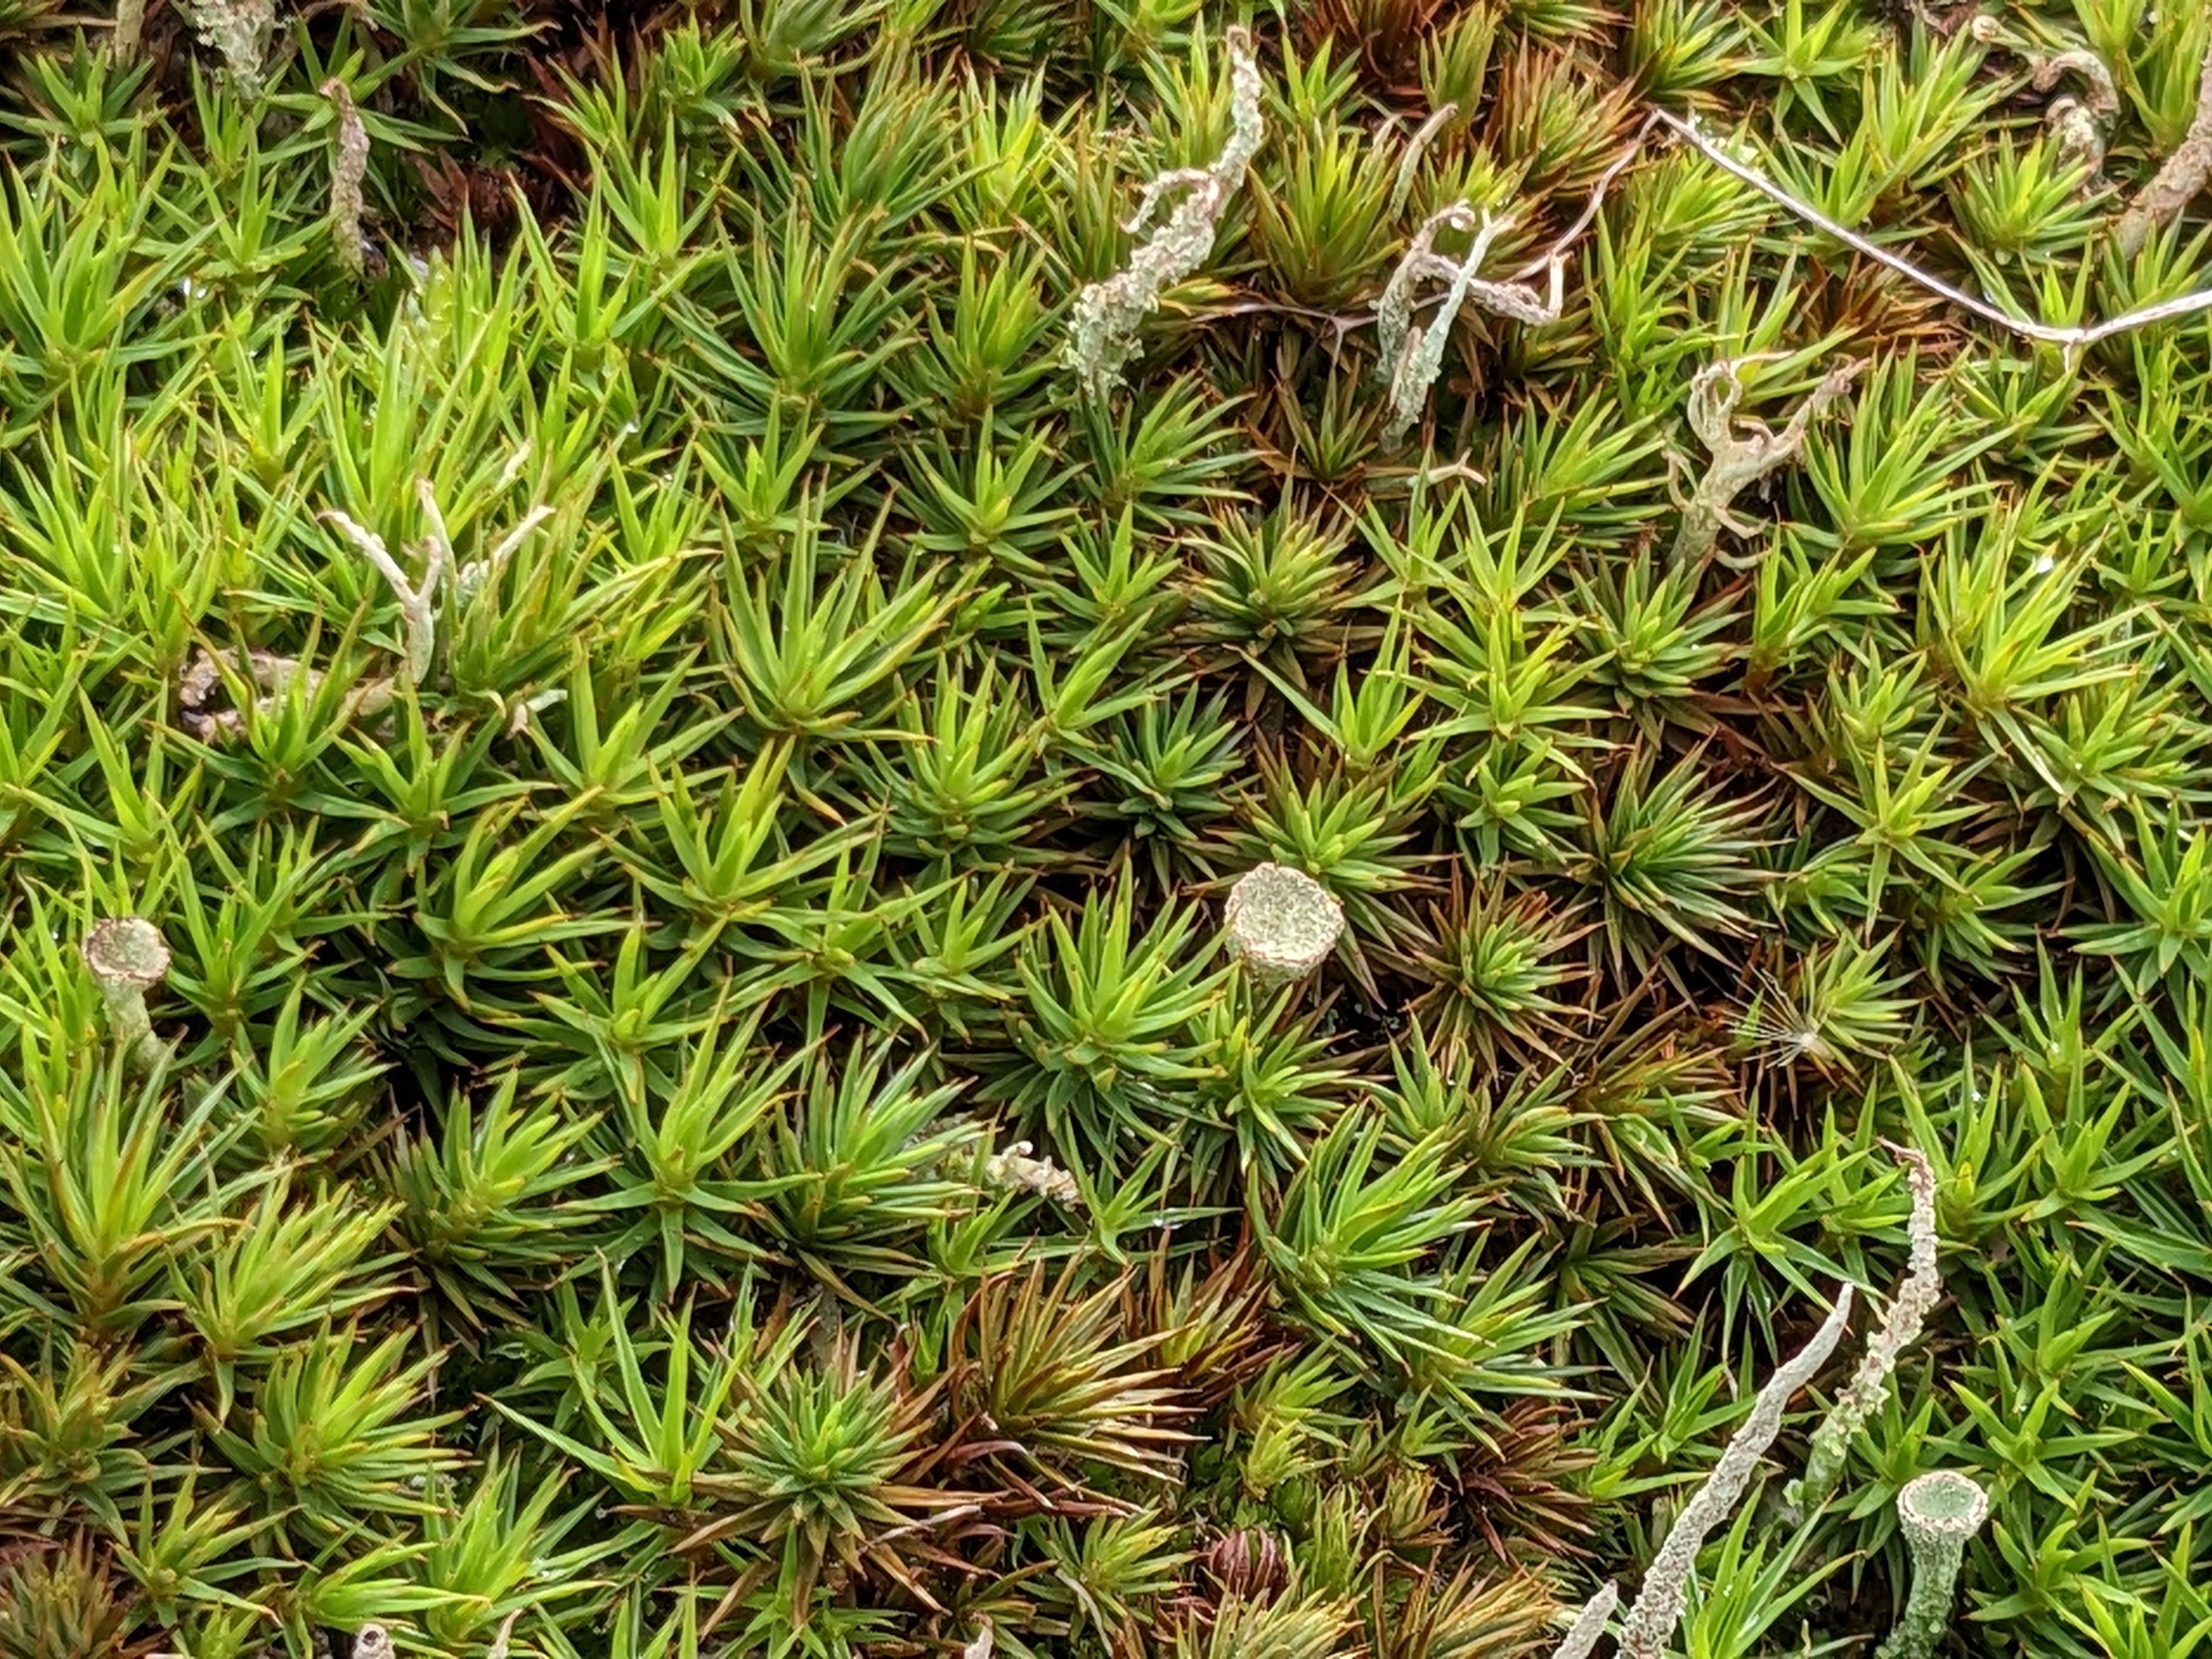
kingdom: Plantae
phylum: Bryophyta
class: Polytrichopsida
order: Polytrichales
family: Polytrichaceae
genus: Polytrichum
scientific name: Polytrichum juniperinum
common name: Ene-jomfruhår
